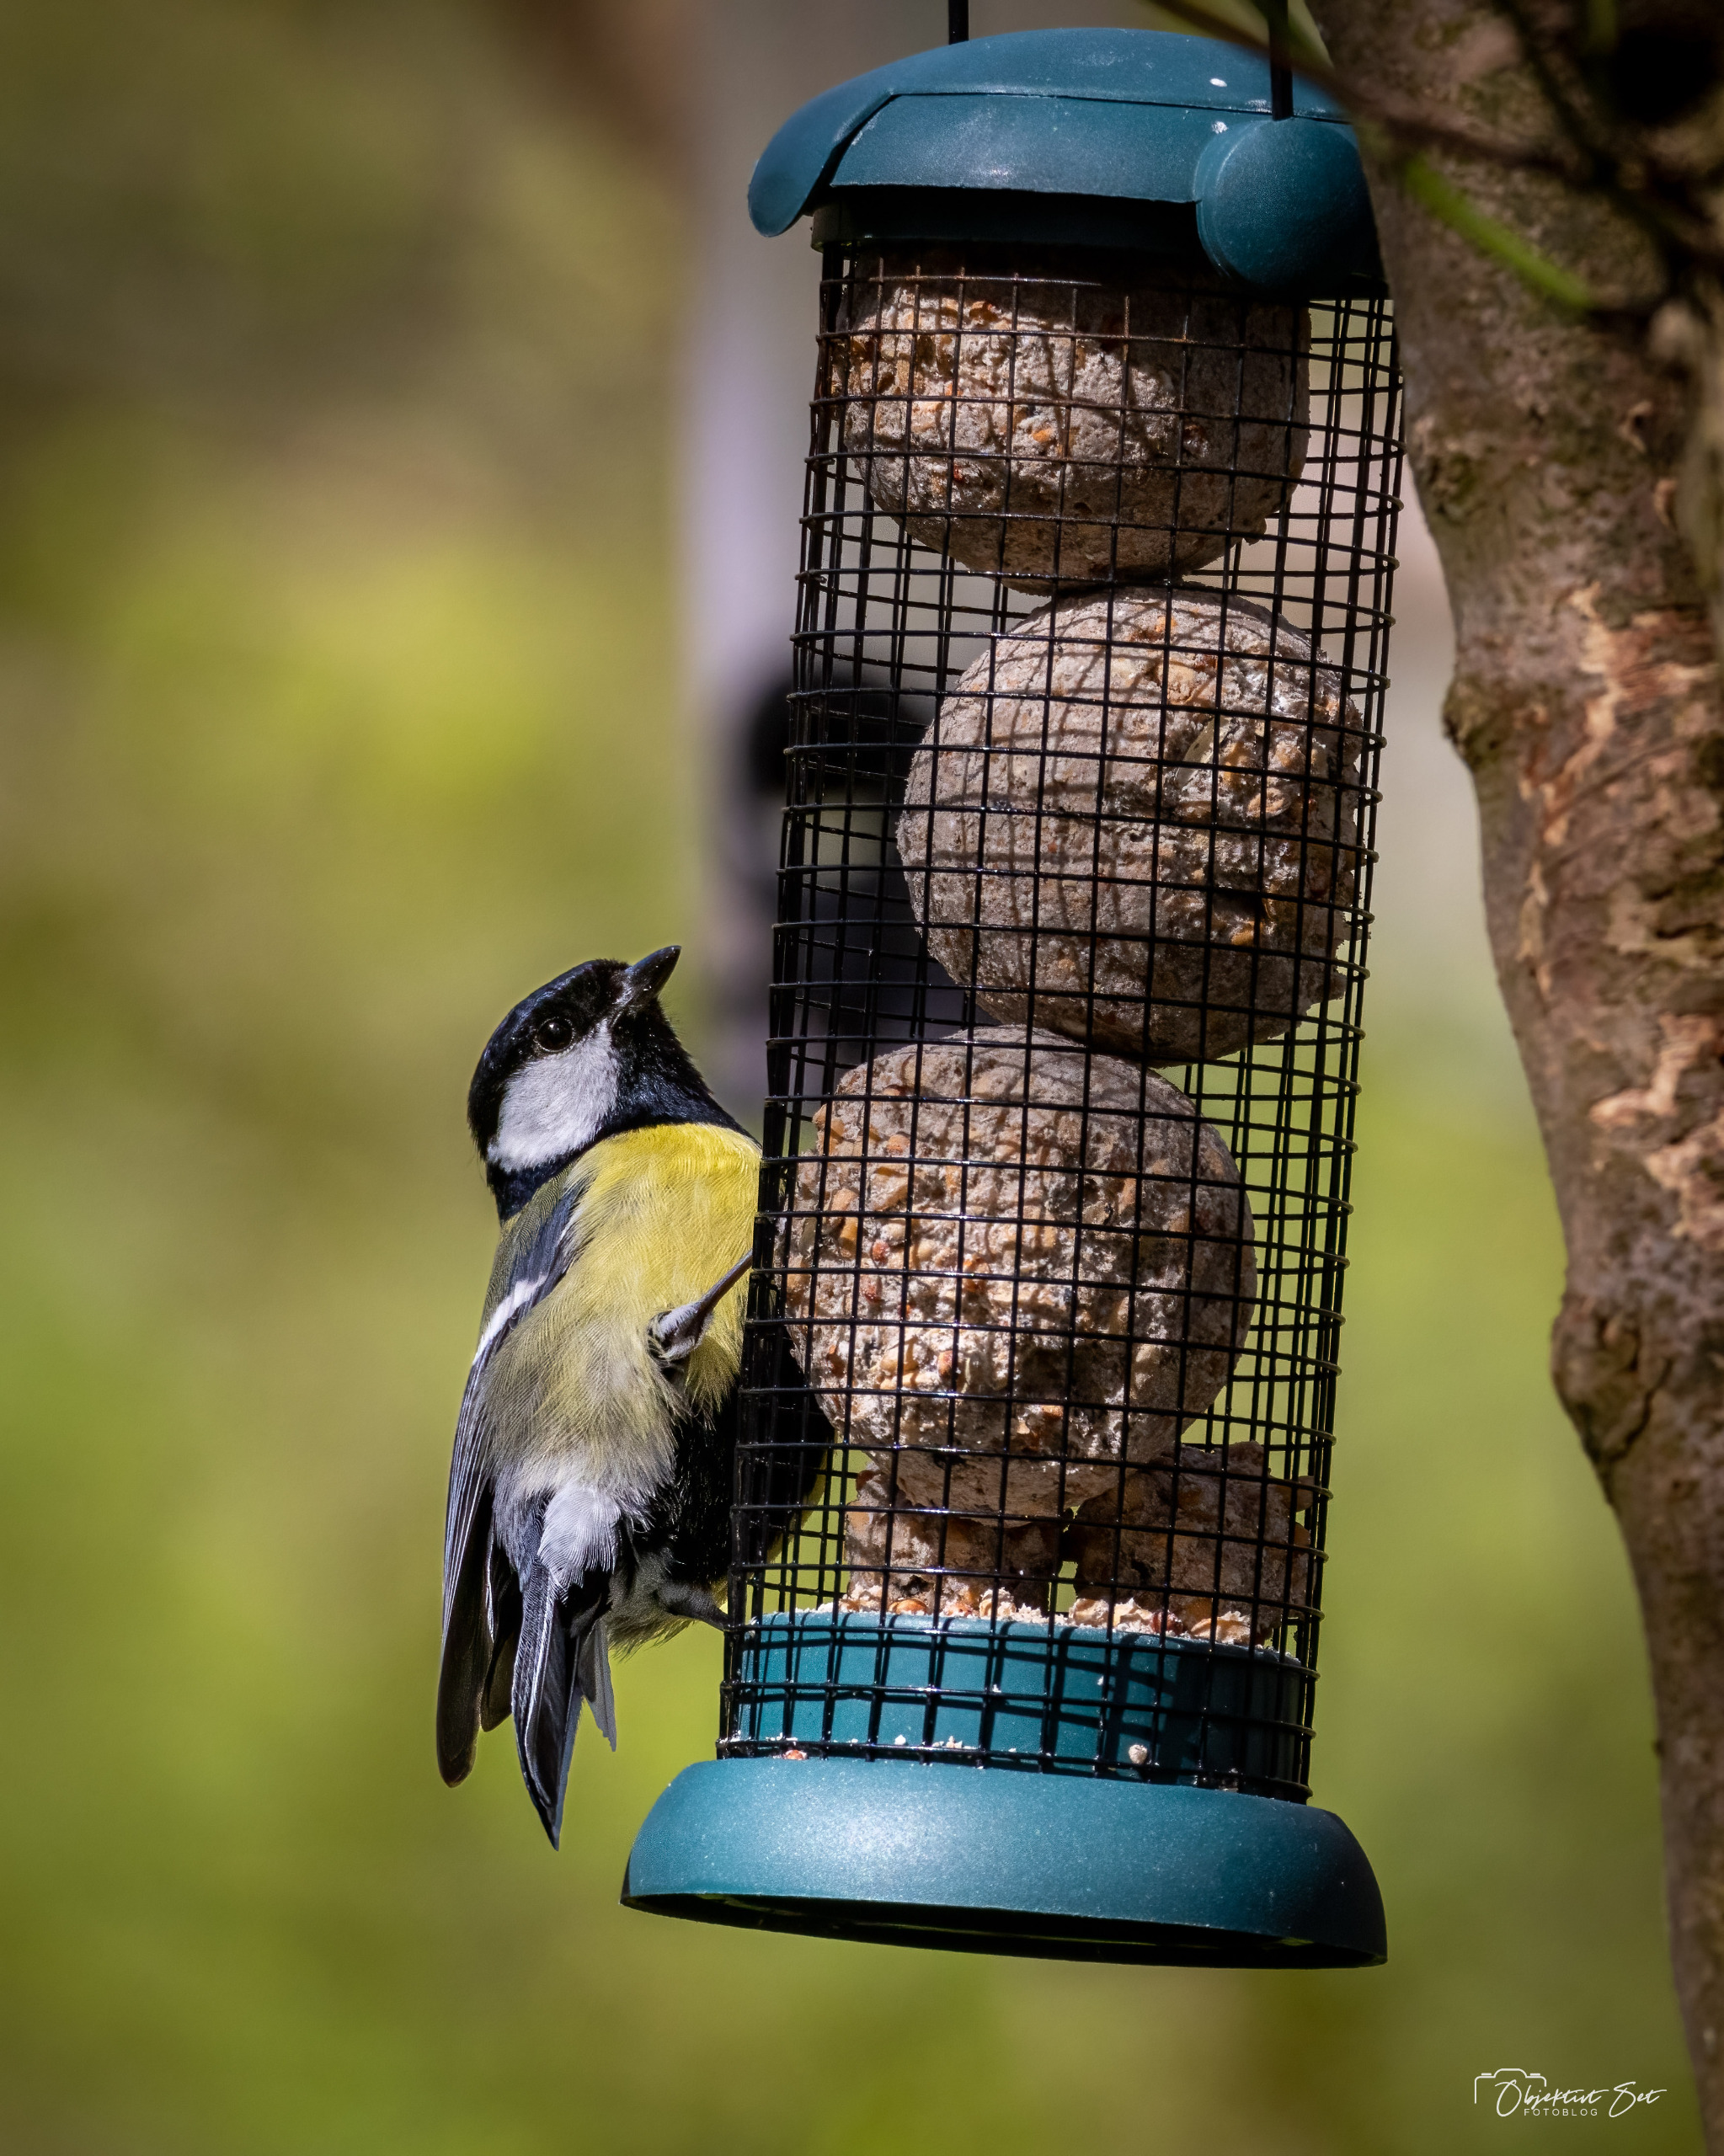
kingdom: Animalia
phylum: Chordata
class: Aves
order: Passeriformes
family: Paridae
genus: Parus
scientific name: Parus major
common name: Musvit
